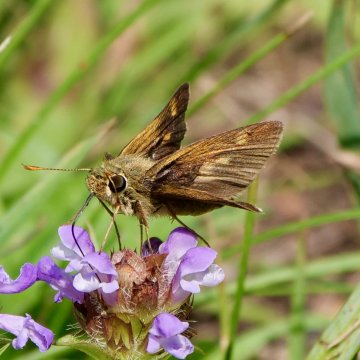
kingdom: Animalia
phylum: Arthropoda
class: Insecta
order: Lepidoptera
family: Hesperiidae
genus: Polites
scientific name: Polites themistocles
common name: Tawny-edged Skipper
